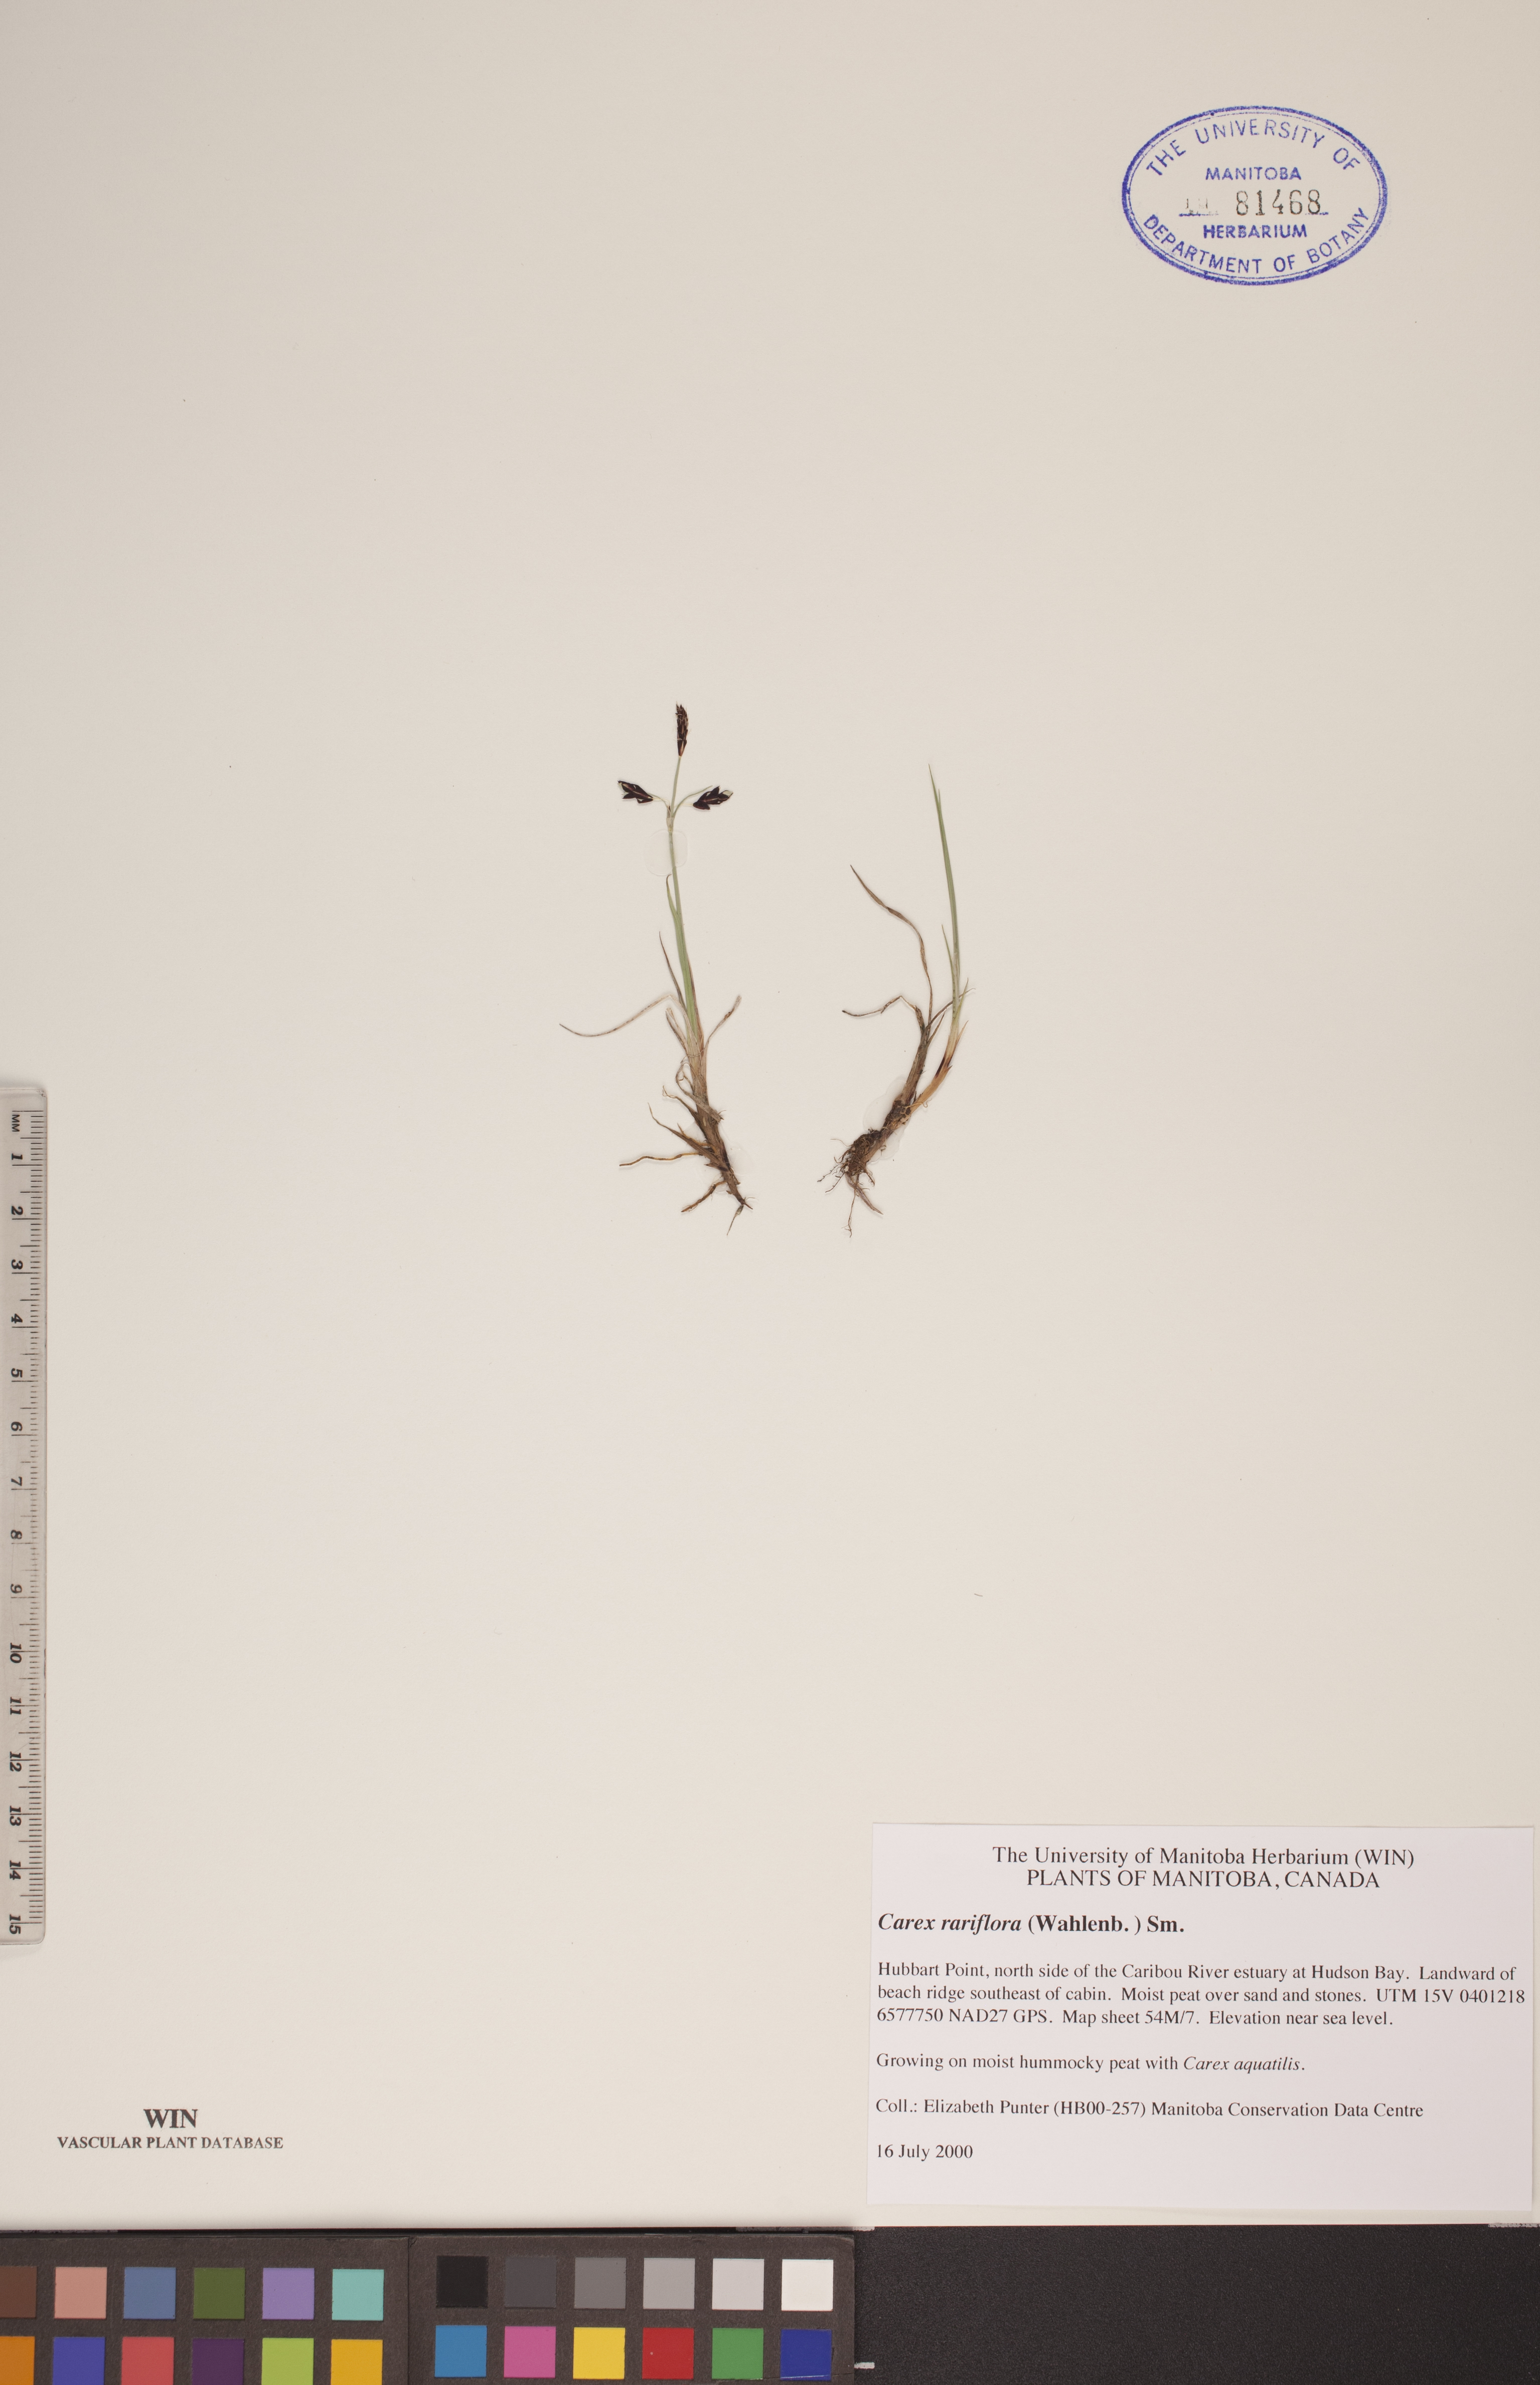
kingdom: Plantae
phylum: Tracheophyta
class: Liliopsida
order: Poales
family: Cyperaceae
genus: Carex
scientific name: Carex rariflora
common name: Loose-flowered alpine sedge
